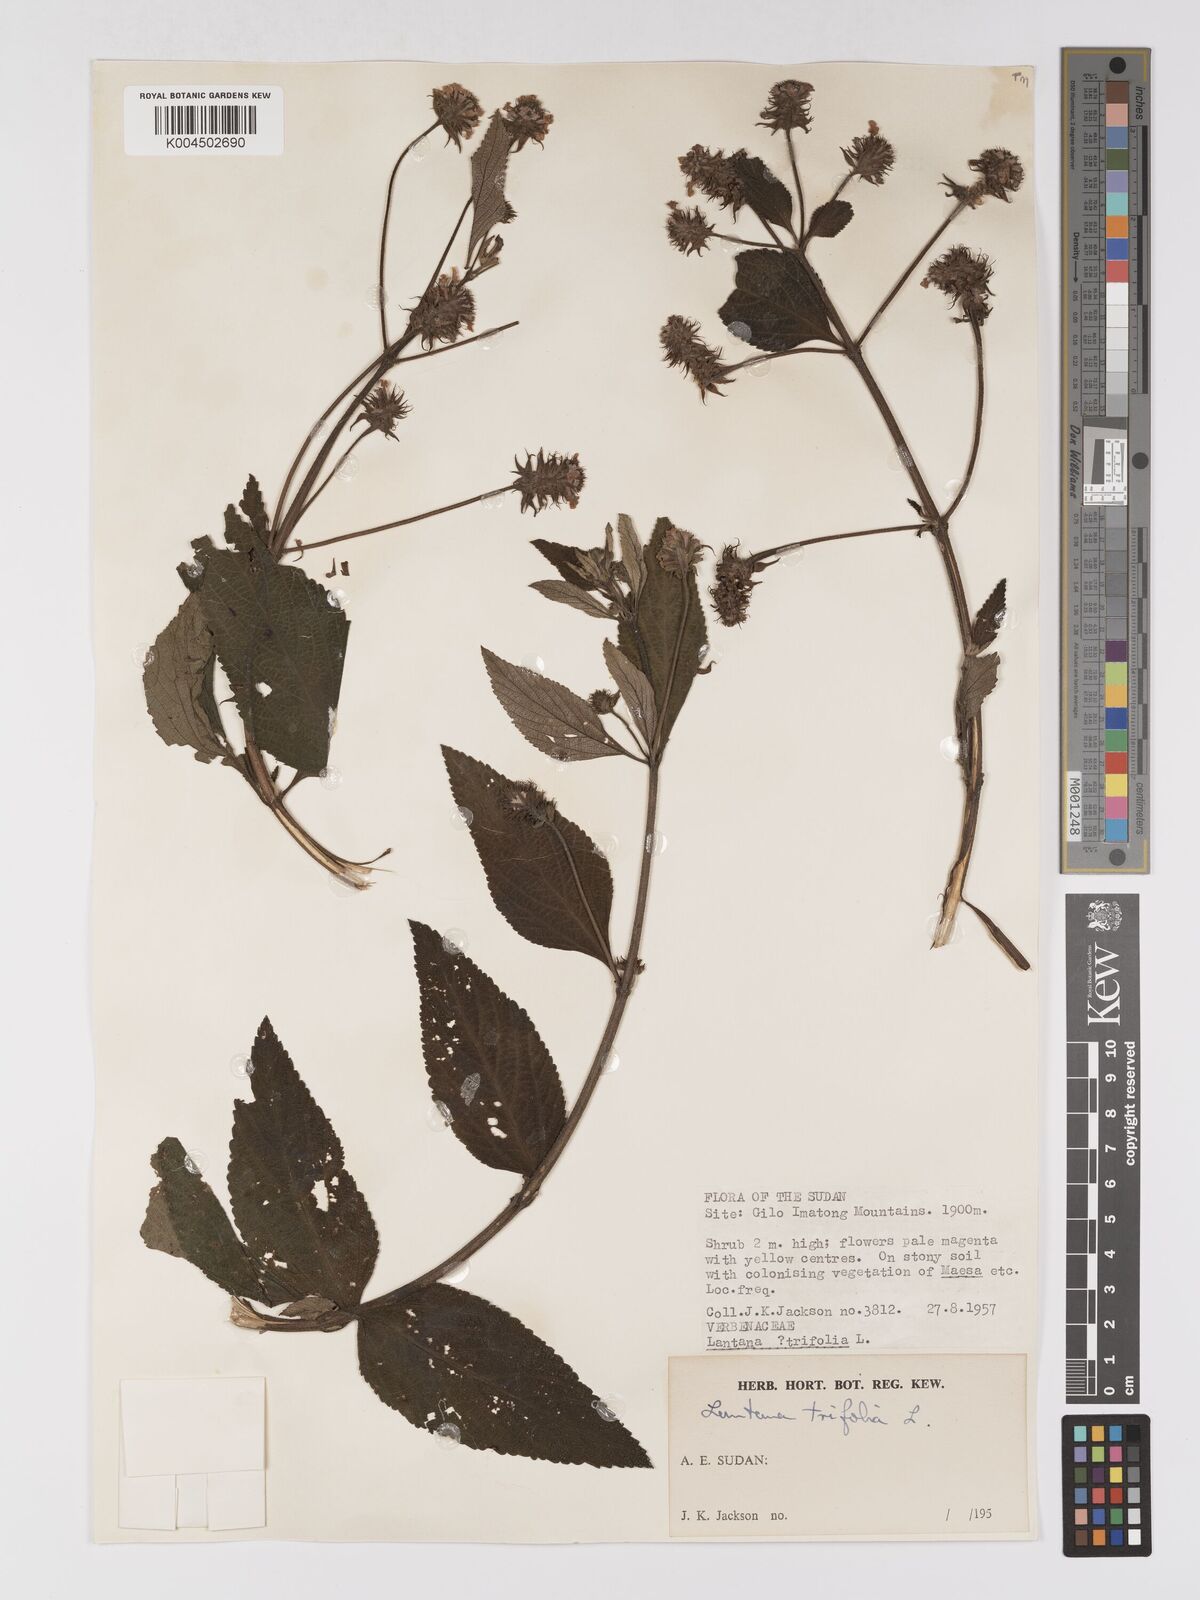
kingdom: Plantae
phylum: Tracheophyta
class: Magnoliopsida
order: Lamiales
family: Verbenaceae
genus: Lantana
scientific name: Lantana trifolia
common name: Sweet-sage
